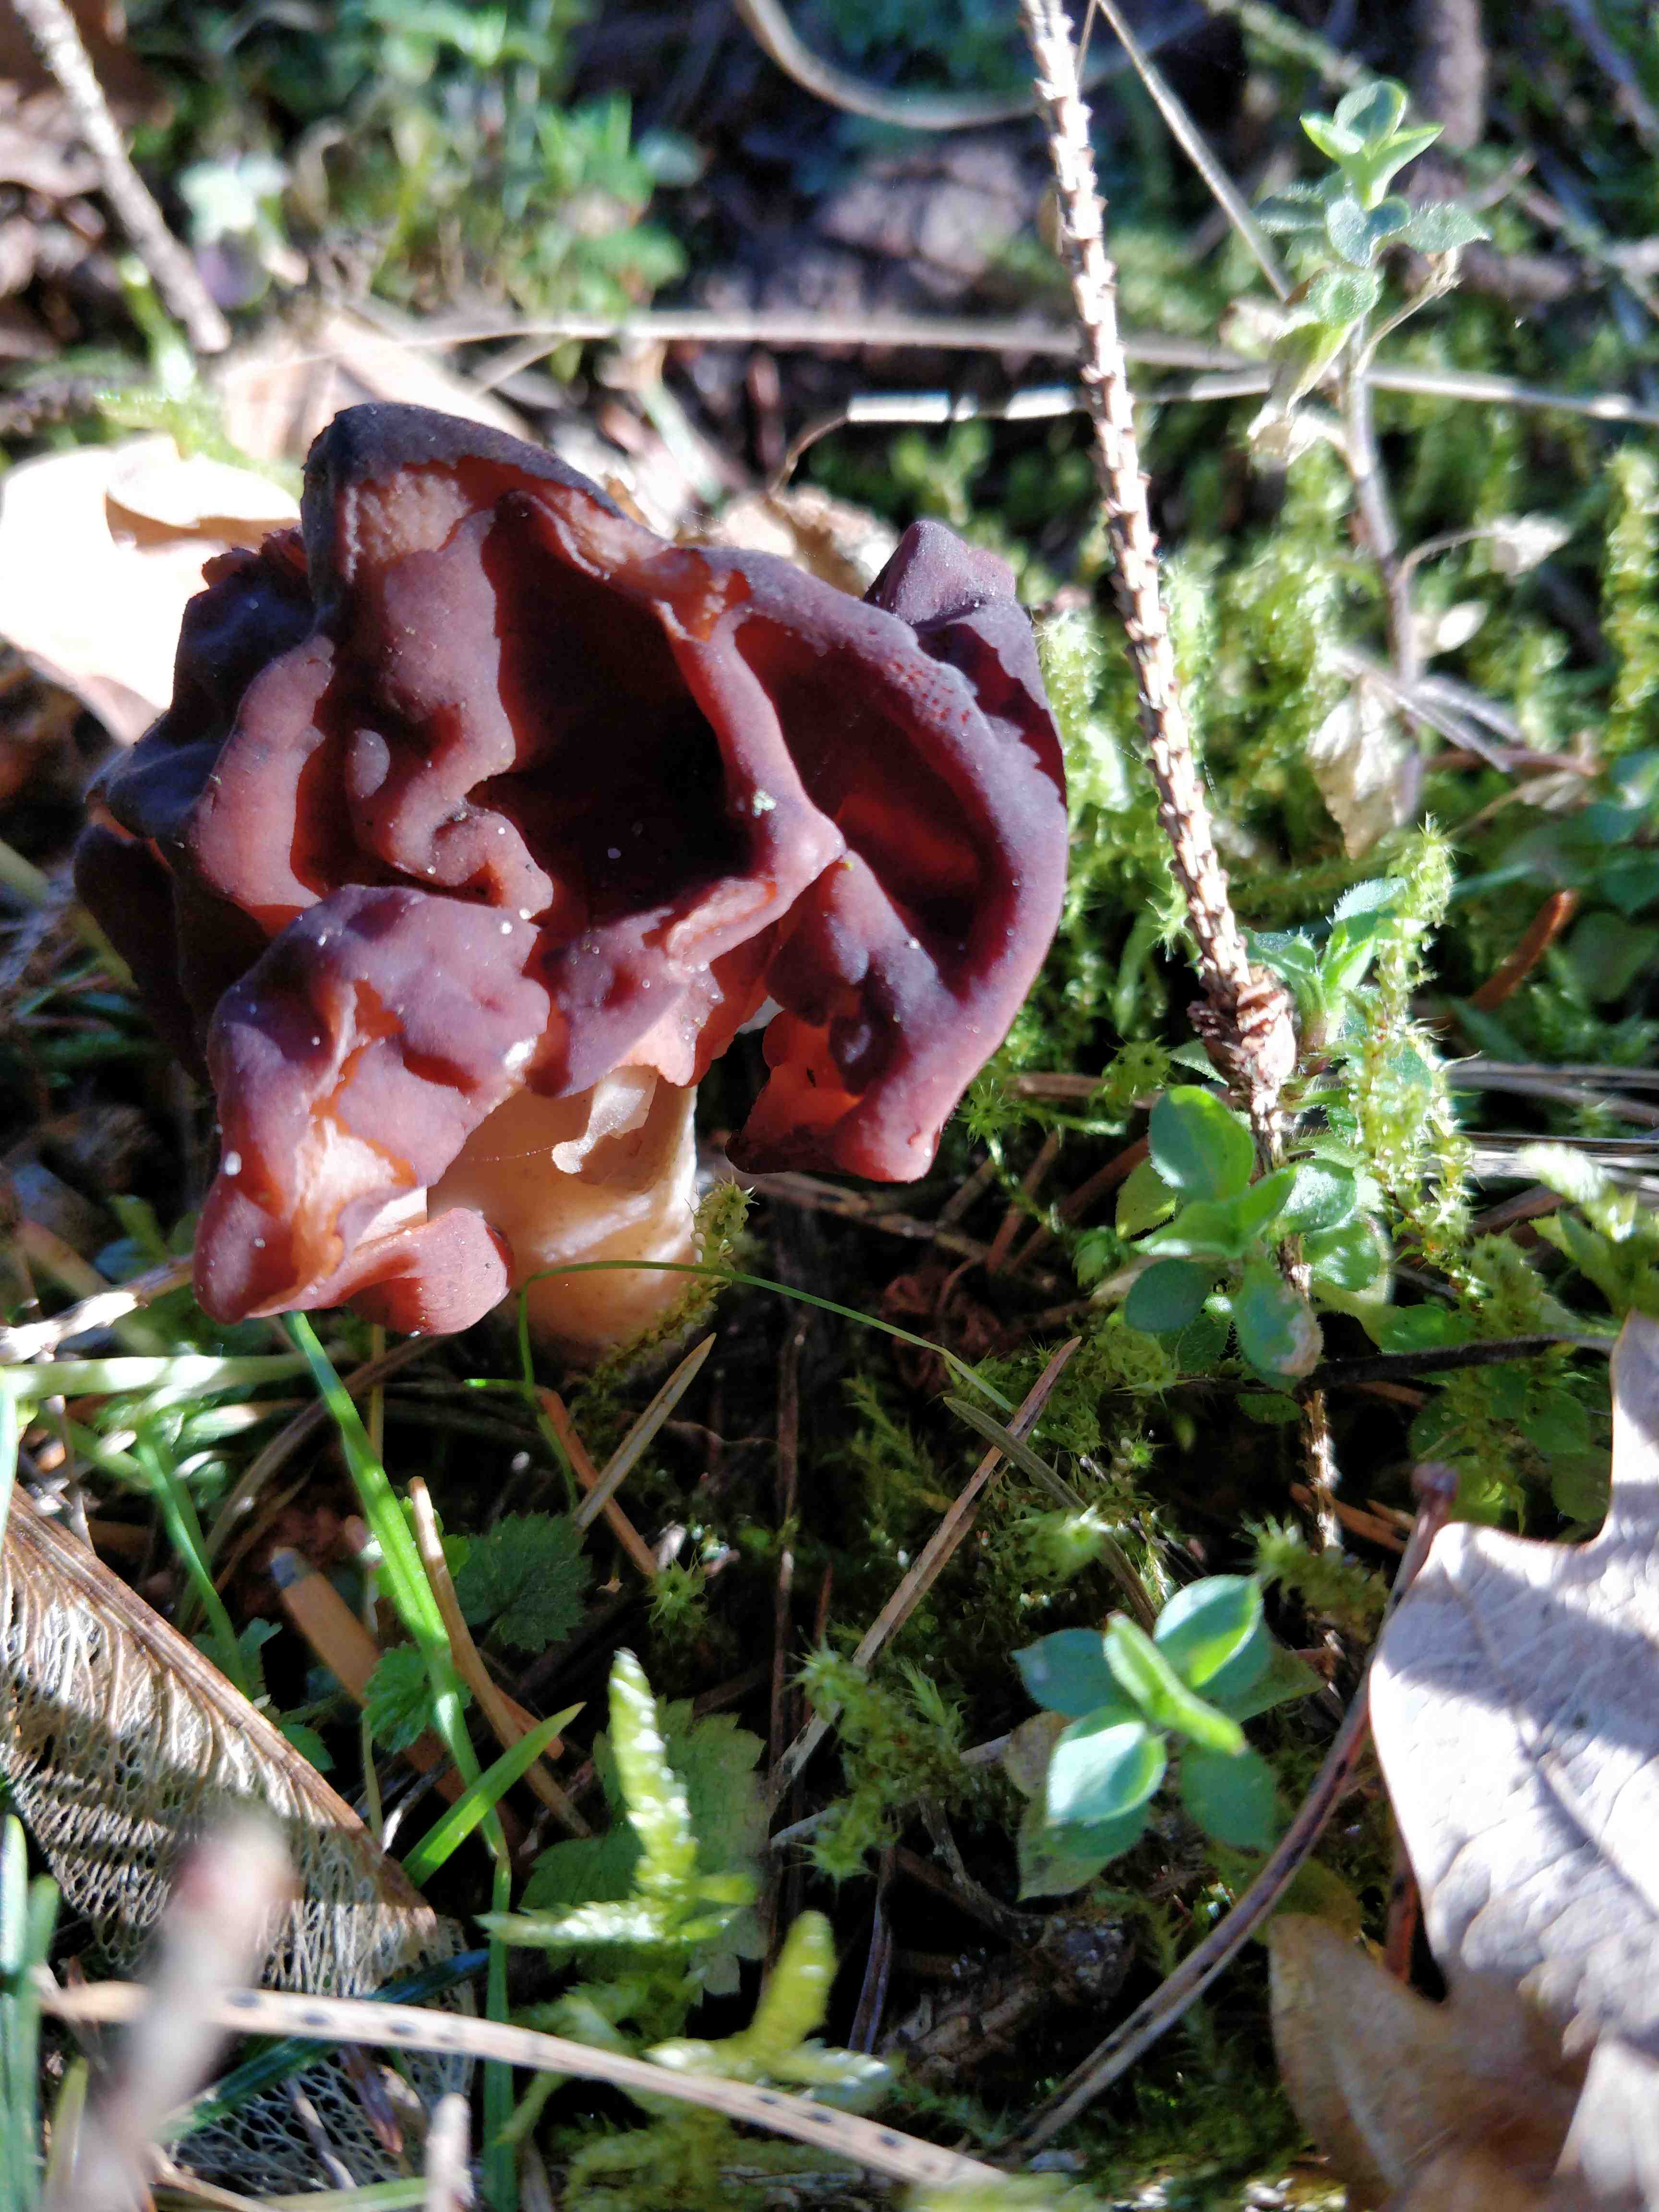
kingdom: Fungi
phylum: Ascomycota
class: Pezizomycetes
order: Pezizales
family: Discinaceae
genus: Gyromitra
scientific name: Gyromitra esculenta
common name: ægte stenmorkel
